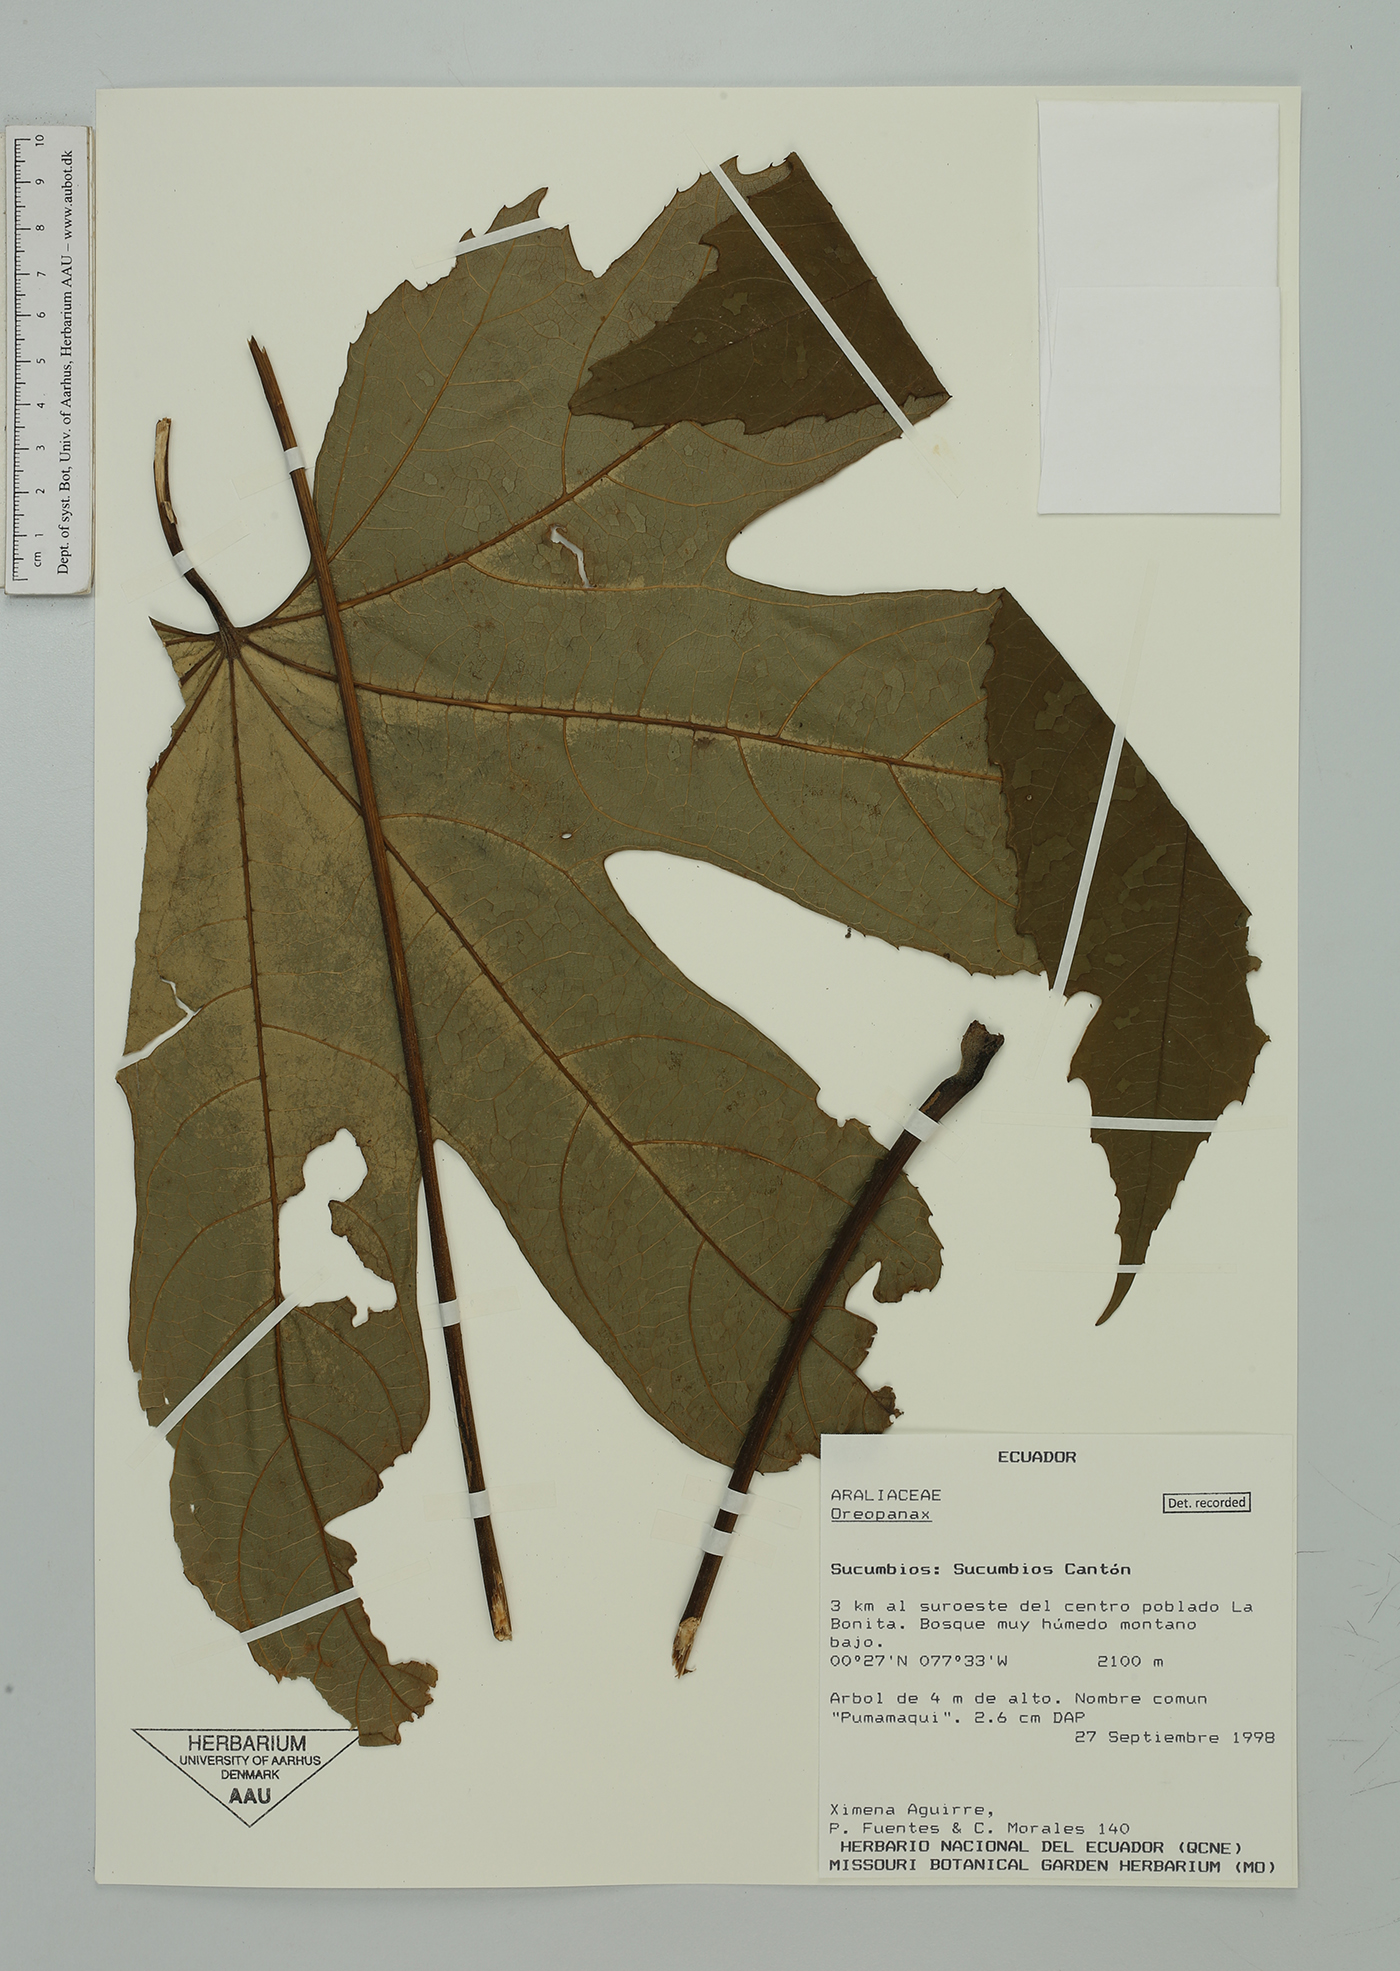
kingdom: Plantae
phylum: Tracheophyta
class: Magnoliopsida
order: Apiales
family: Araliaceae
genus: Oreopanax
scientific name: Oreopanax
